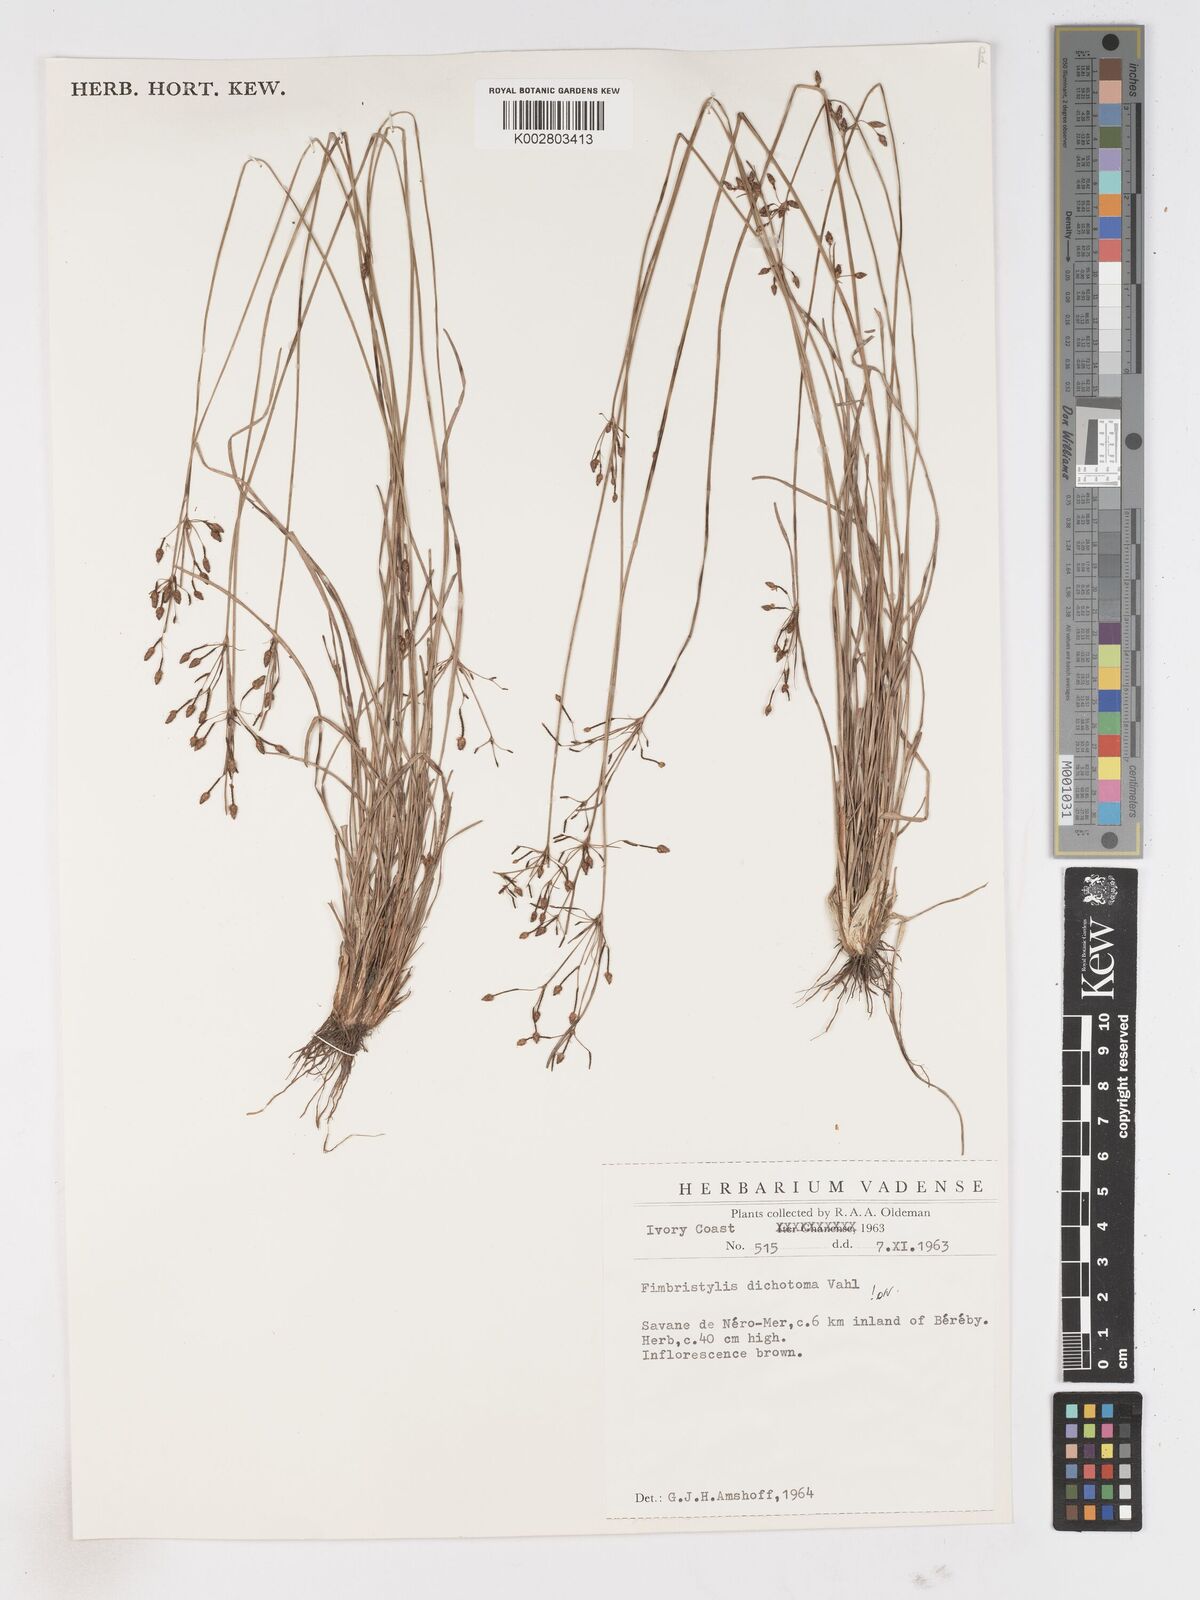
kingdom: Plantae
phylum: Tracheophyta
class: Liliopsida
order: Poales
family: Cyperaceae
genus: Fimbristylis
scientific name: Fimbristylis dichotoma
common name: Forked fimbry
